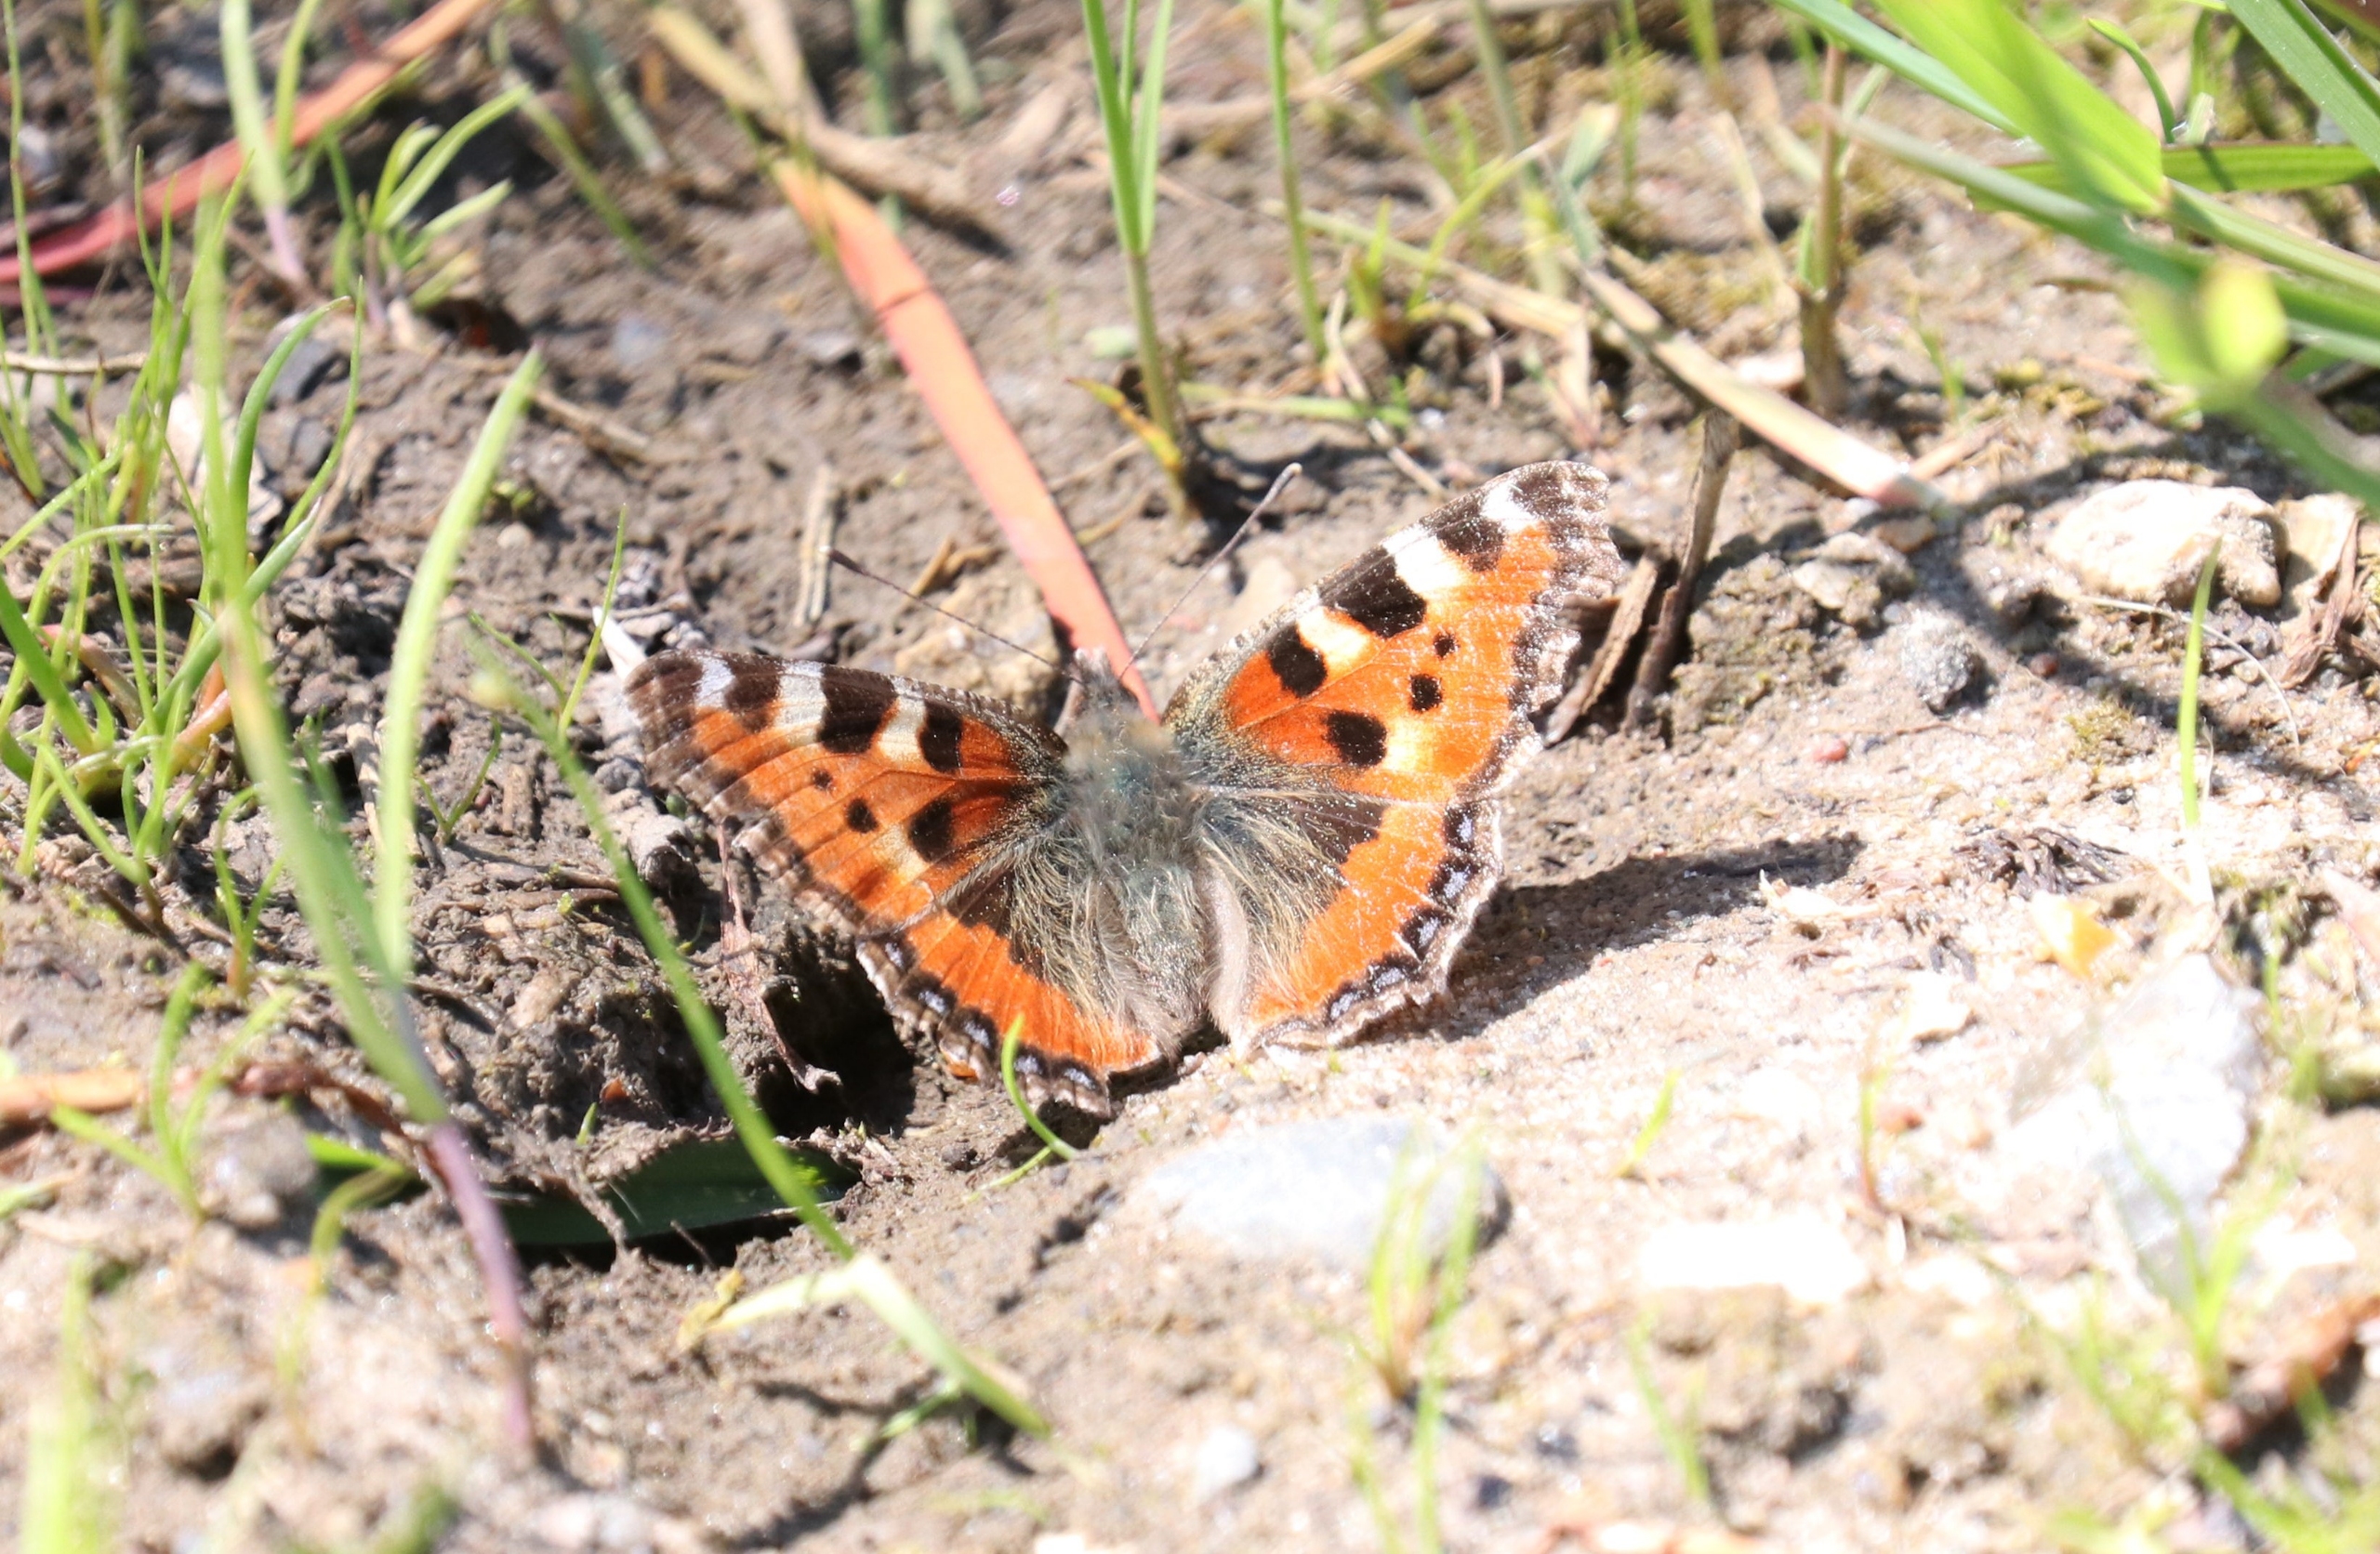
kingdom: Animalia
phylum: Arthropoda
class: Insecta
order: Lepidoptera
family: Nymphalidae
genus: Aglais
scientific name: Aglais urticae
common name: Nældens takvinge
